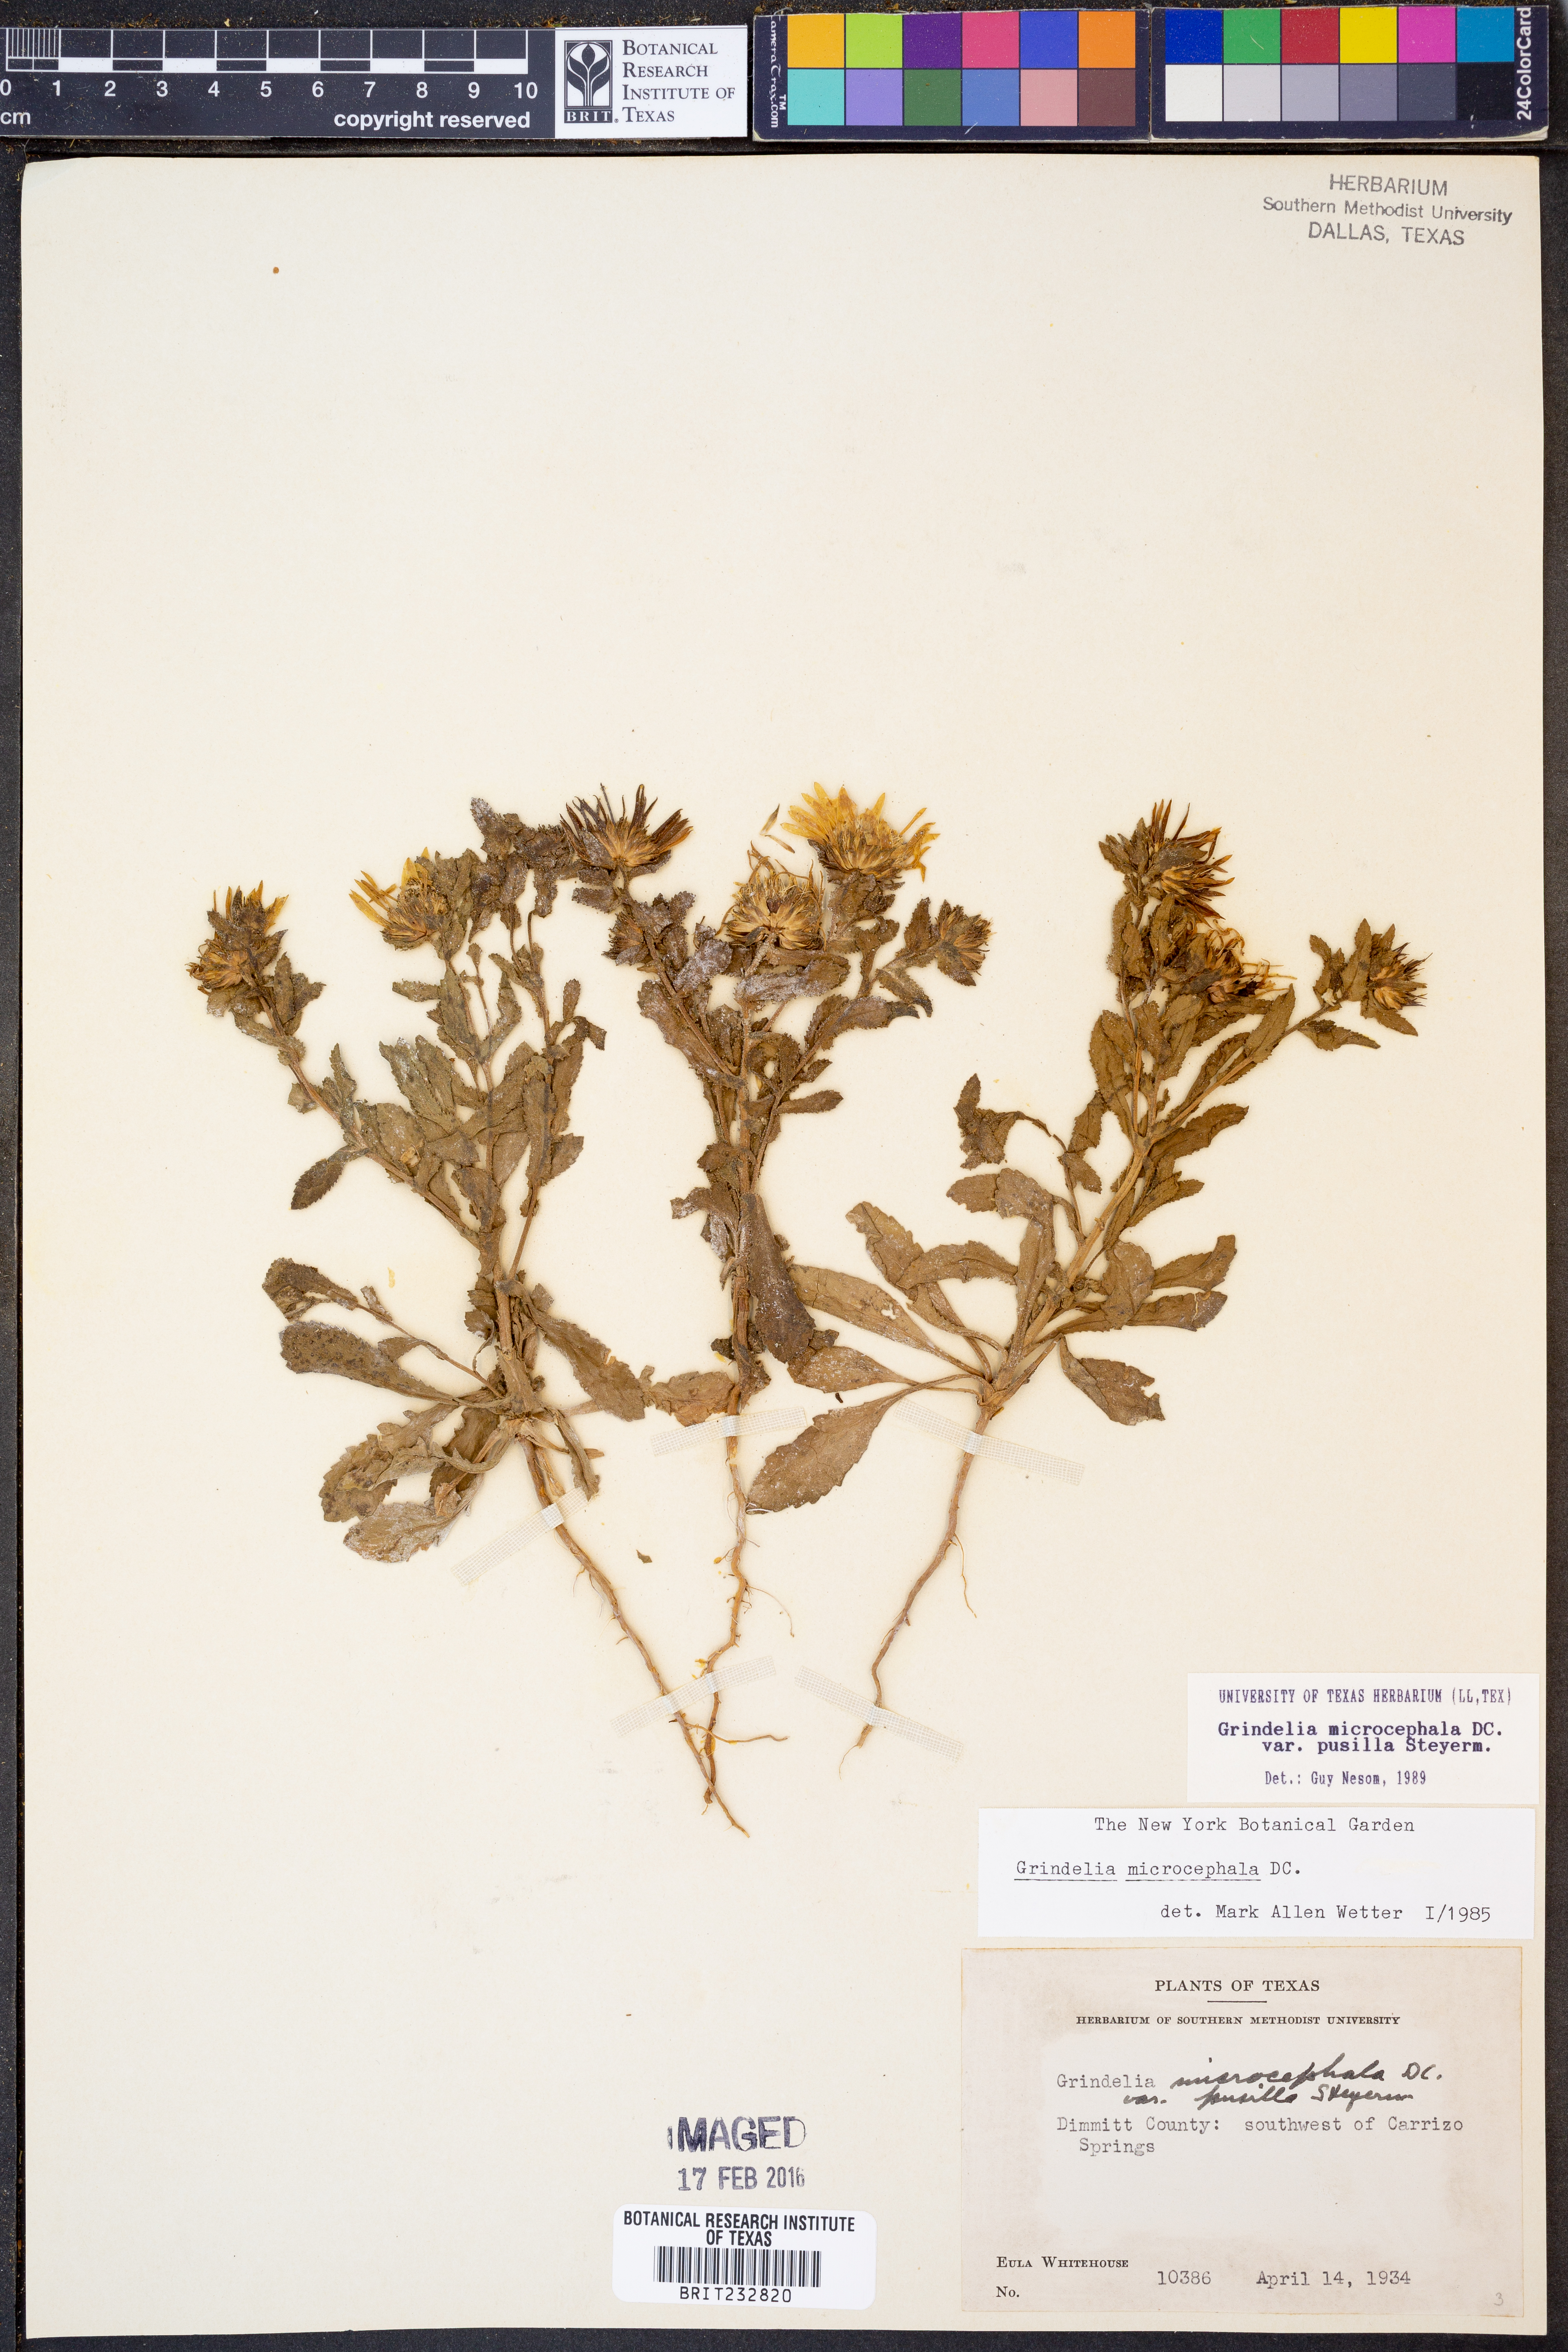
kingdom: Plantae
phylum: Tracheophyta
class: Magnoliopsida
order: Asterales
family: Asteraceae
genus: Grindelia
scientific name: Grindelia pusilla
